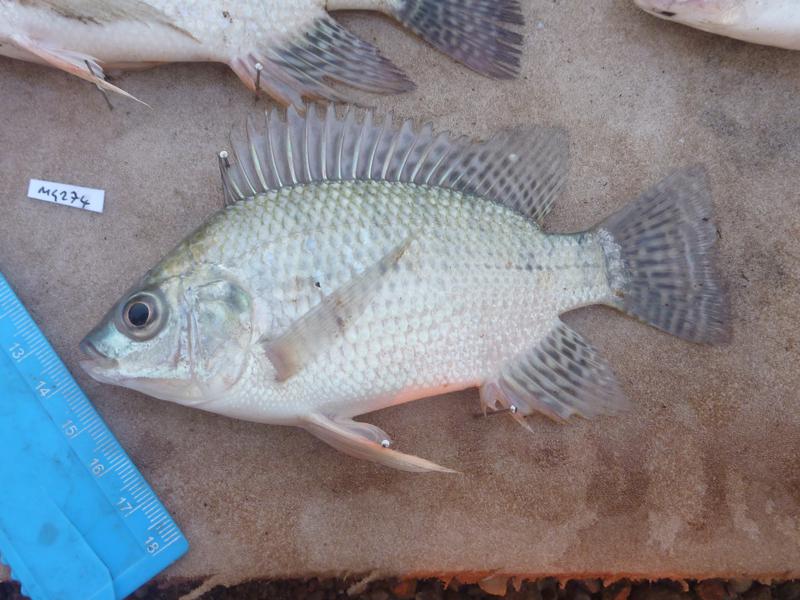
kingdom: Animalia
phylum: Chordata
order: Perciformes
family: Cichlidae
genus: Oreochromis
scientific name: Oreochromis niloticus
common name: Nile tilapia
